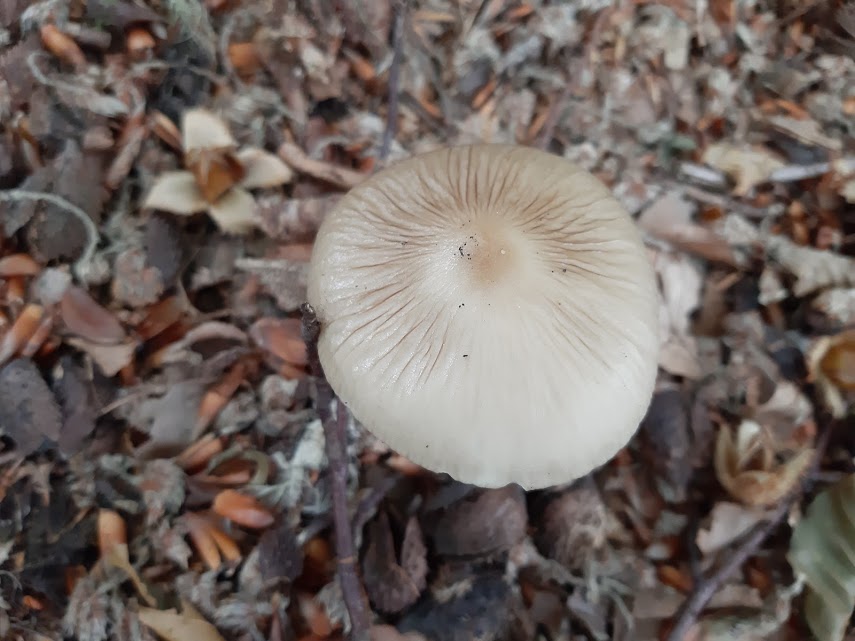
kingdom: Fungi
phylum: Basidiomycota
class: Agaricomycetes
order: Agaricales
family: Physalacriaceae
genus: Hymenopellis
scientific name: Hymenopellis radicata
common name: almindelig pælerodshat
